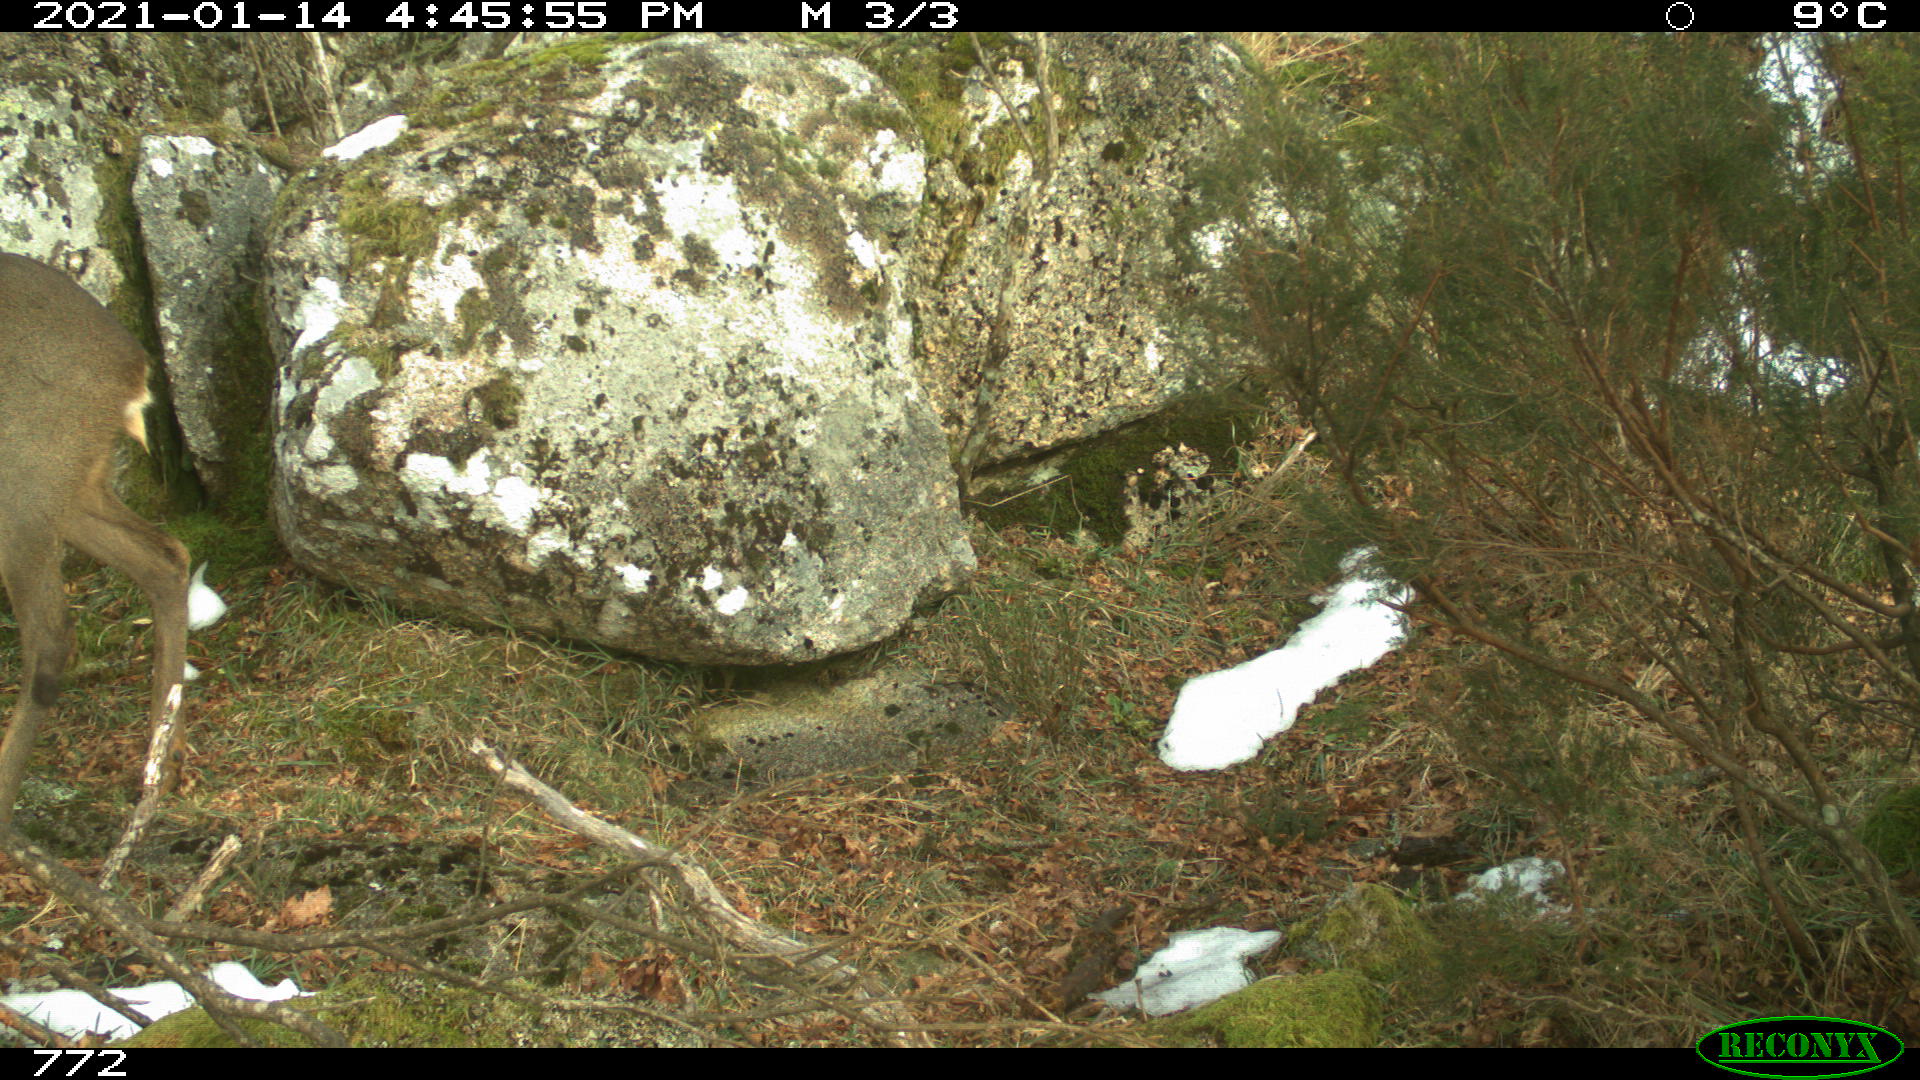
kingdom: Animalia
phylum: Chordata
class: Mammalia
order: Artiodactyla
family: Cervidae
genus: Capreolus
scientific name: Capreolus capreolus
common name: Western roe deer
